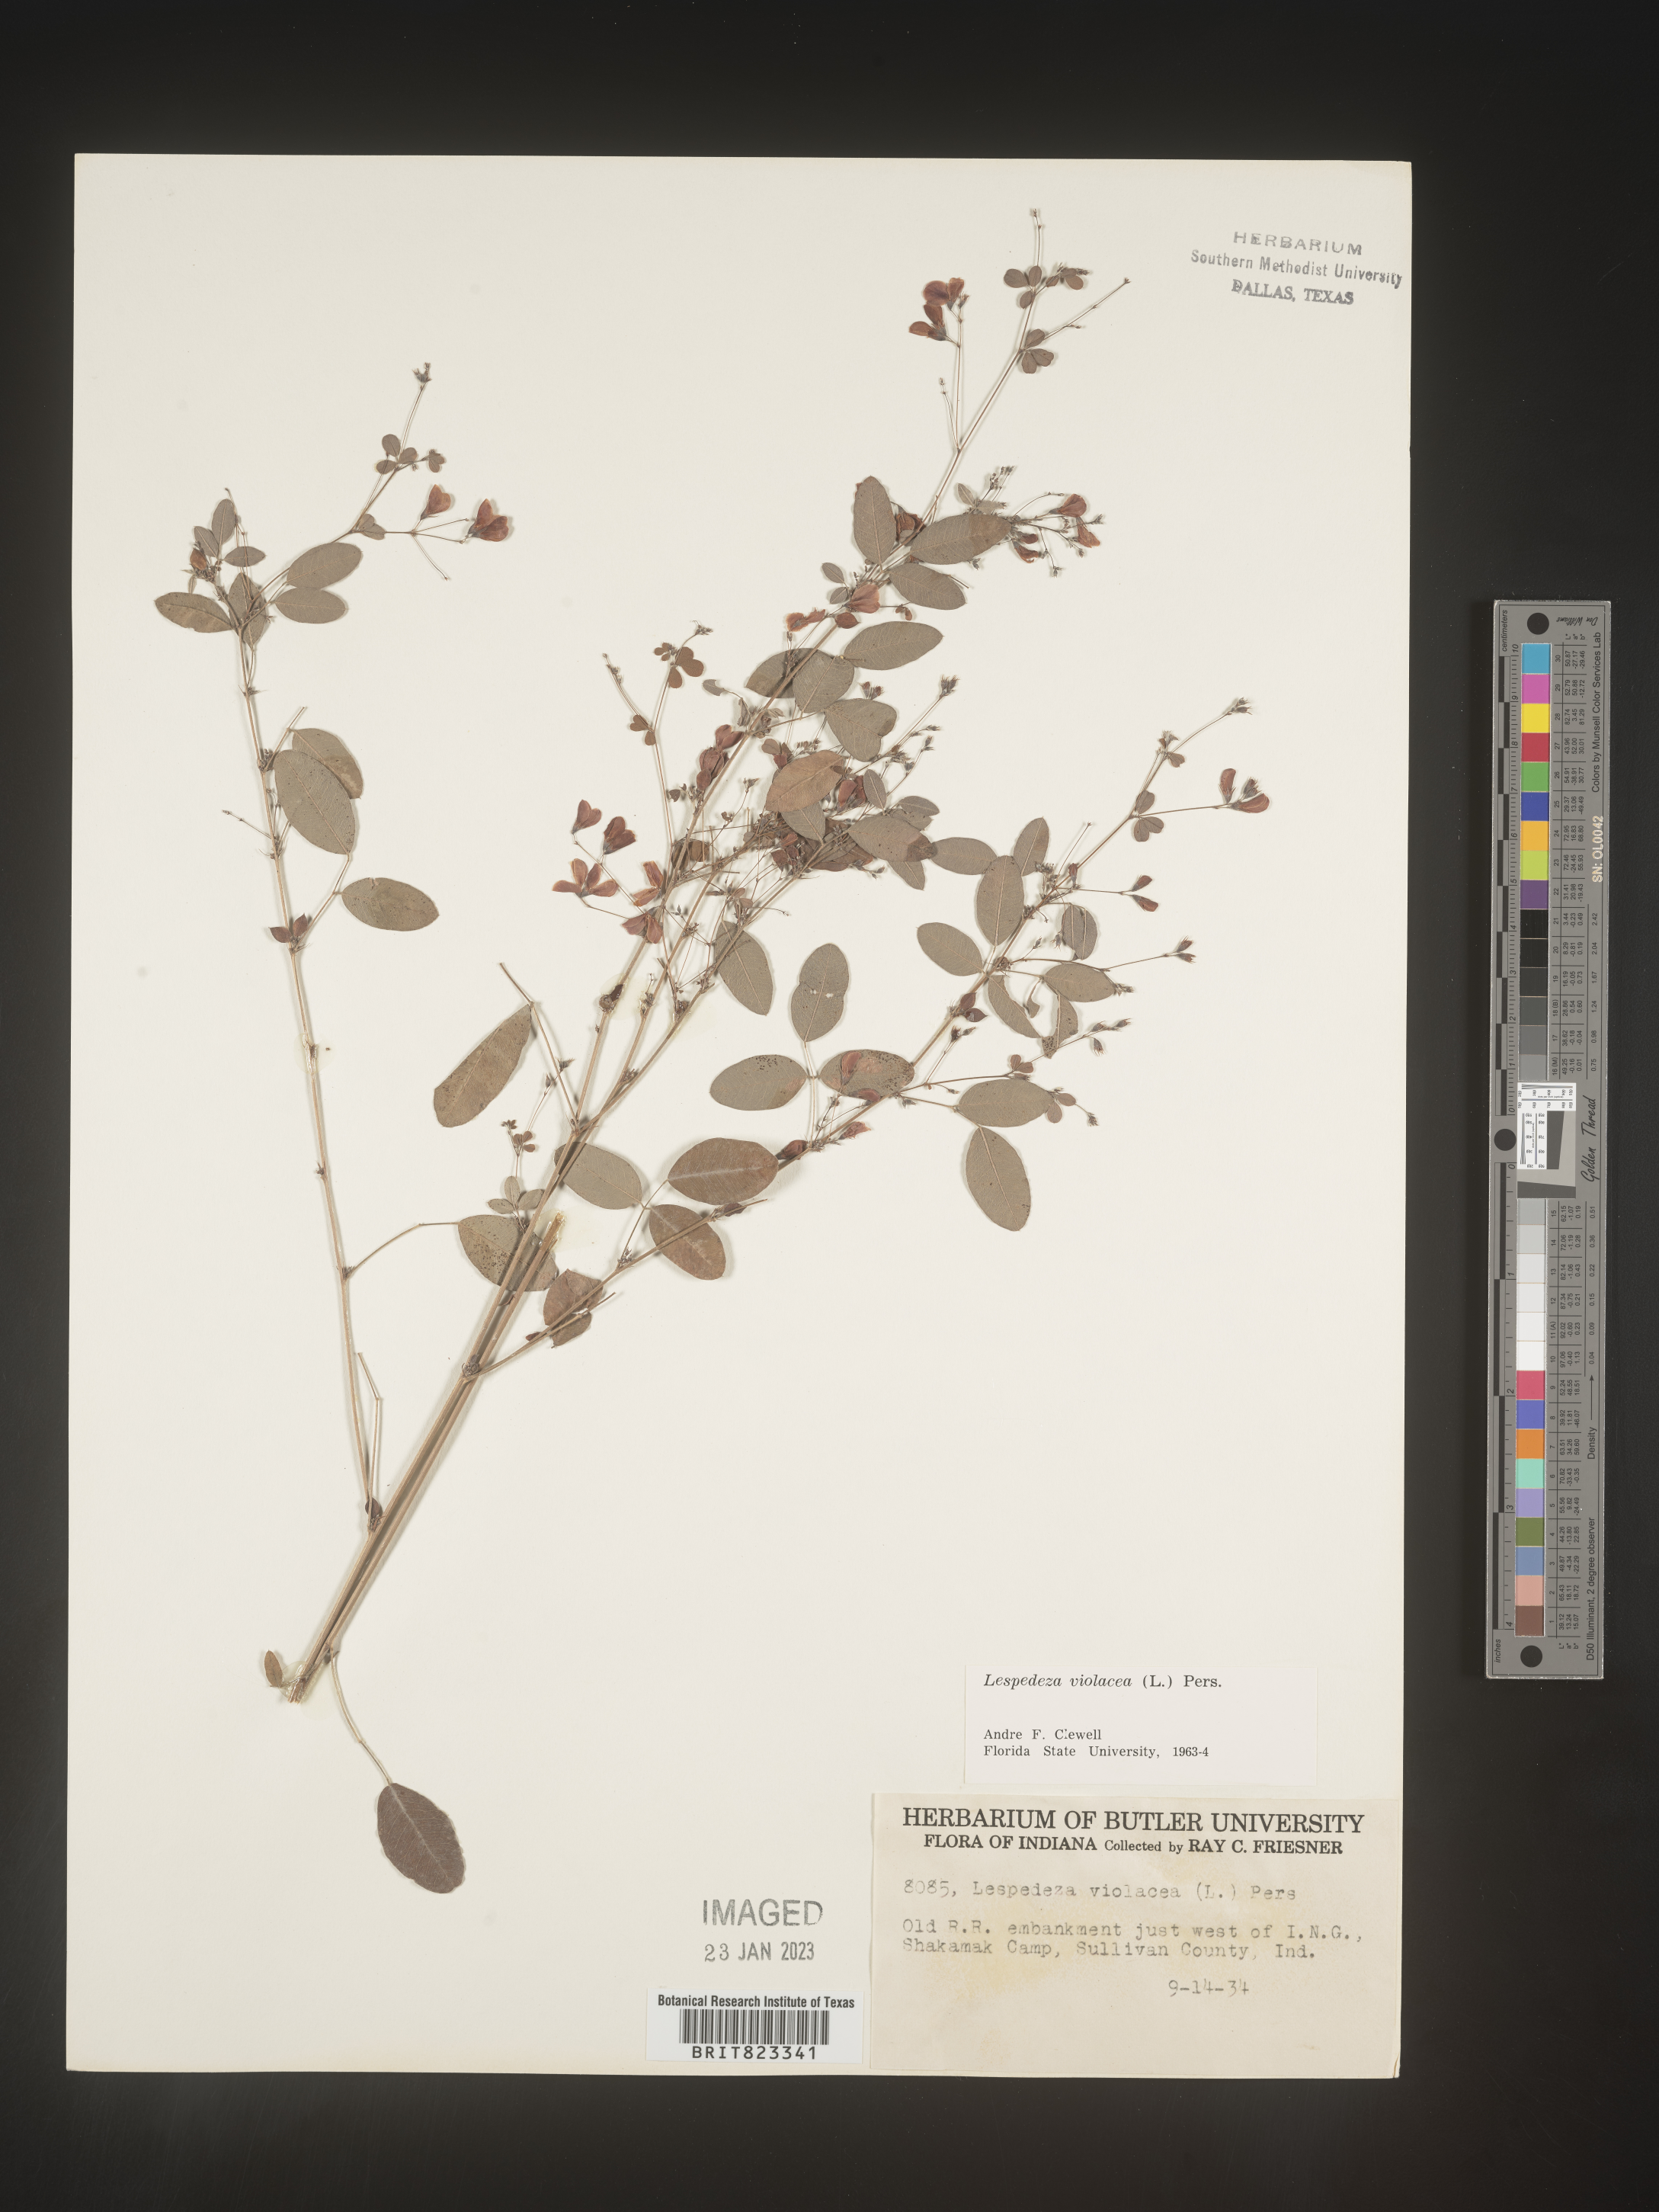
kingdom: Plantae
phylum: Tracheophyta
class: Magnoliopsida
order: Fabales
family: Fabaceae
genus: Lespedeza
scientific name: Lespedeza violacea
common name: Wand bush-clover
